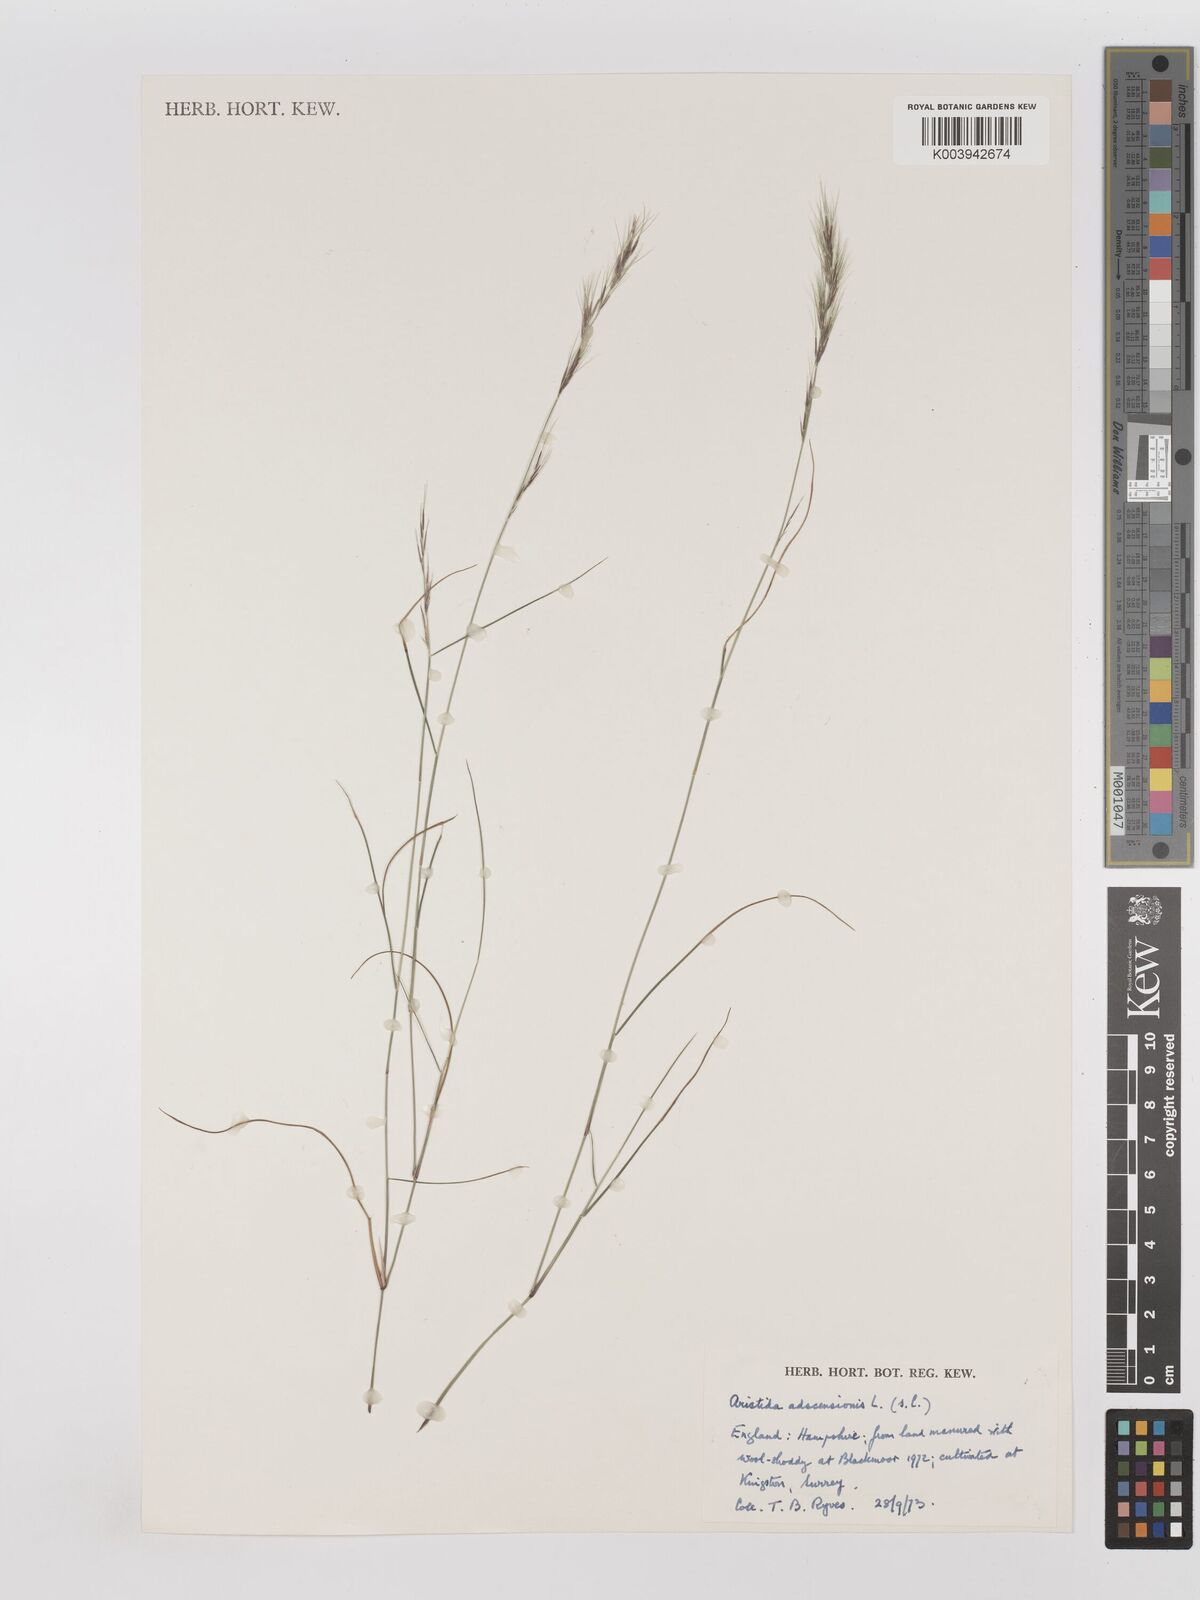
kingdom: Plantae
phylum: Tracheophyta
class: Liliopsida
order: Poales
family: Poaceae
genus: Aristida
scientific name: Aristida adscensionis
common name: Sixweeks threeawn
